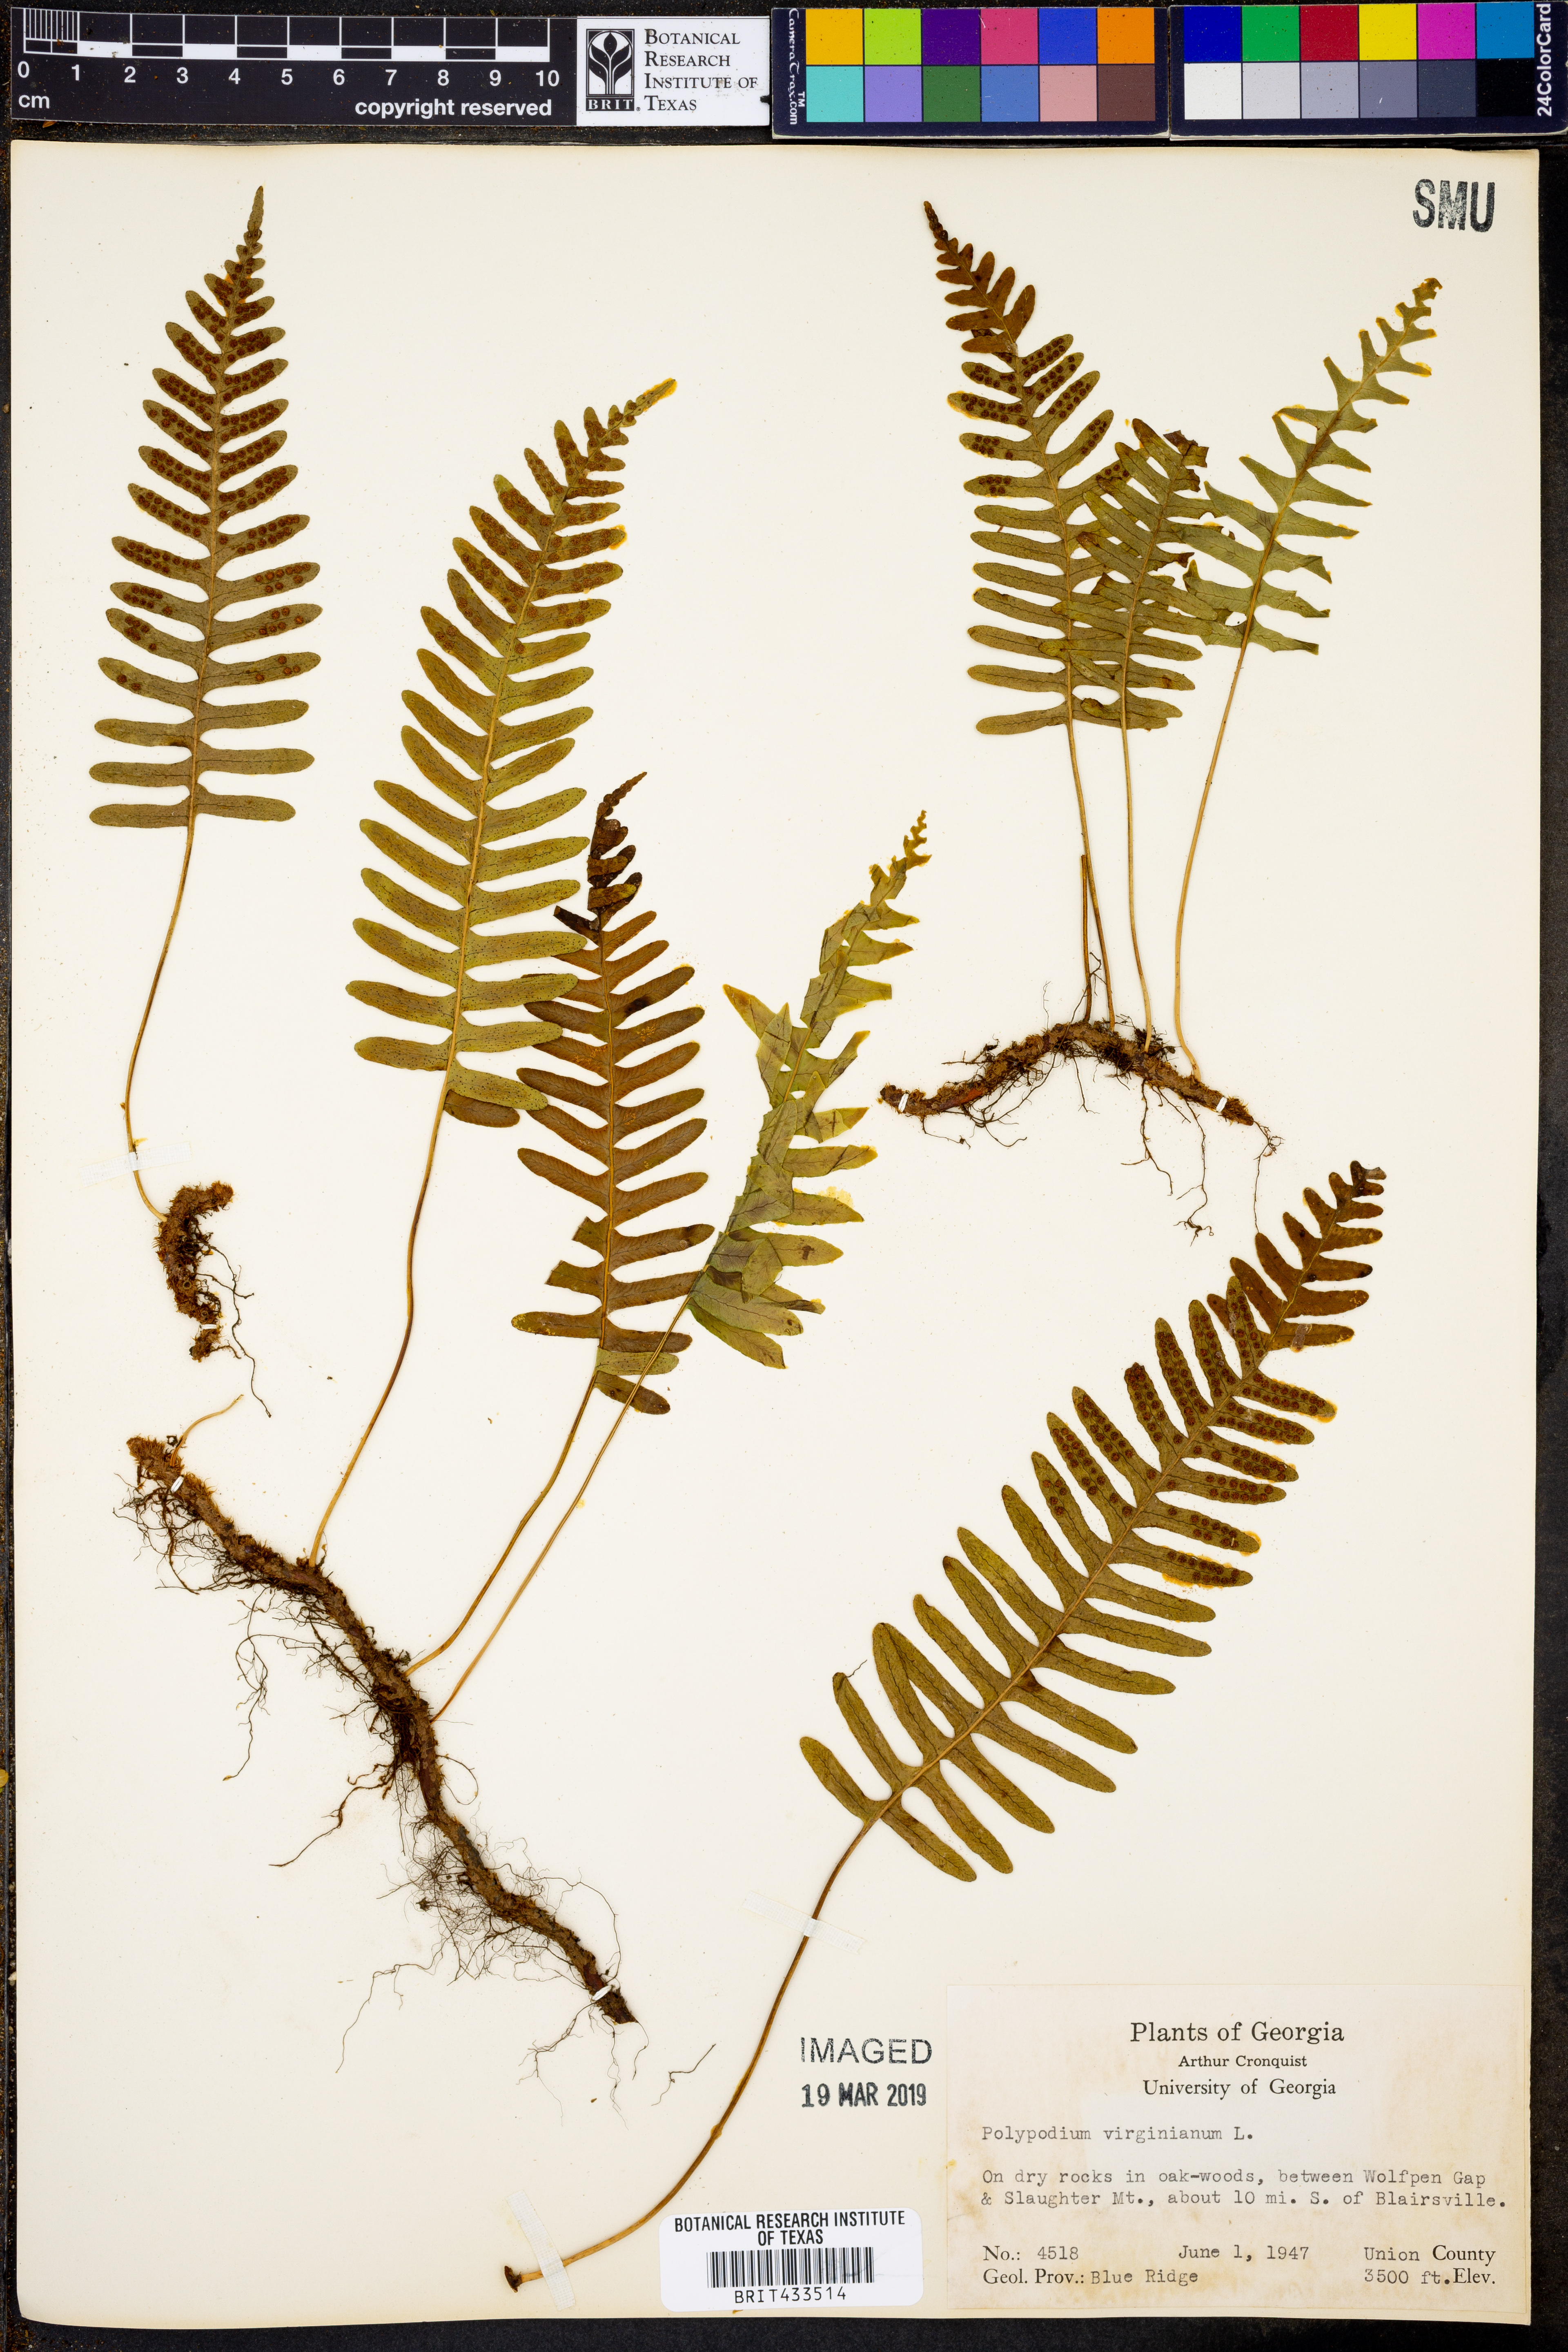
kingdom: Plantae
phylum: Tracheophyta
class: Polypodiopsida
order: Polypodiales
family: Polypodiaceae
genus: Polypodium
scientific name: Polypodium virginianum
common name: American wall fern
